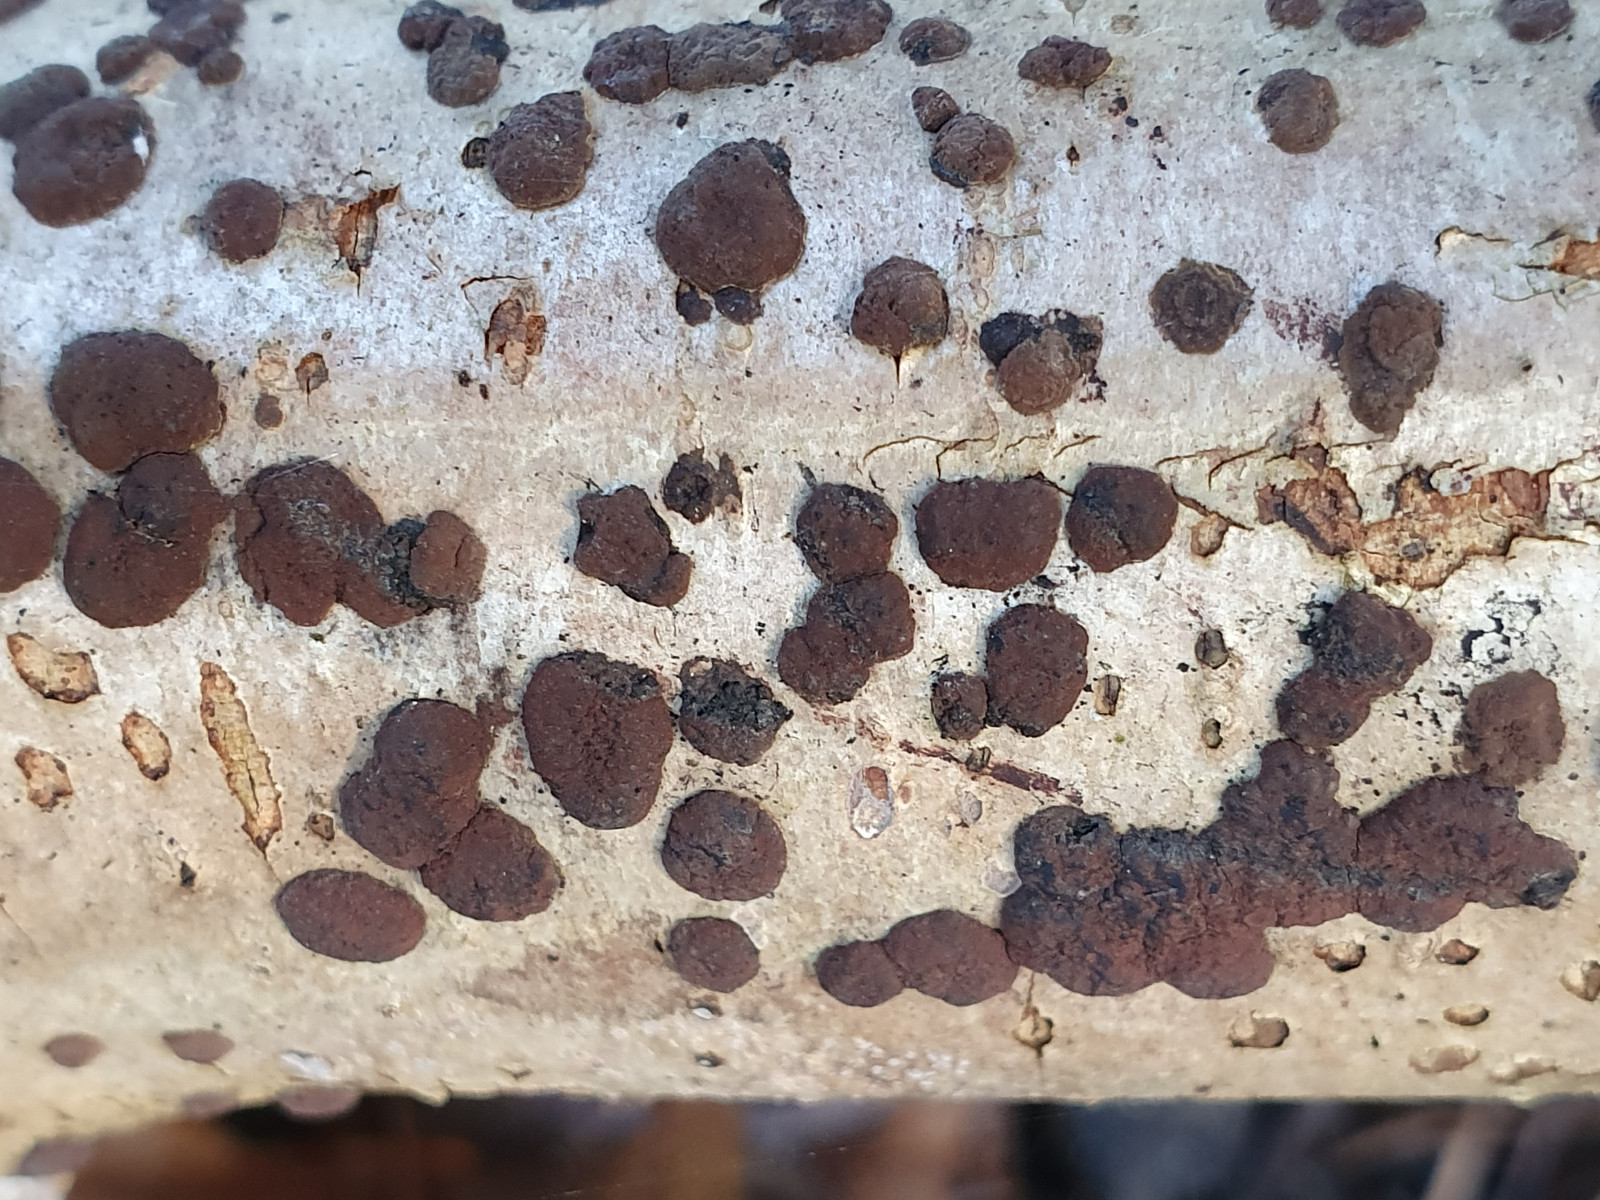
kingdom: Fungi
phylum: Ascomycota
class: Sordariomycetes
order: Xylariales
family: Hypoxylaceae
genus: Hypoxylon
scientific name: Hypoxylon fuscum
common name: kegleformet kulbær
